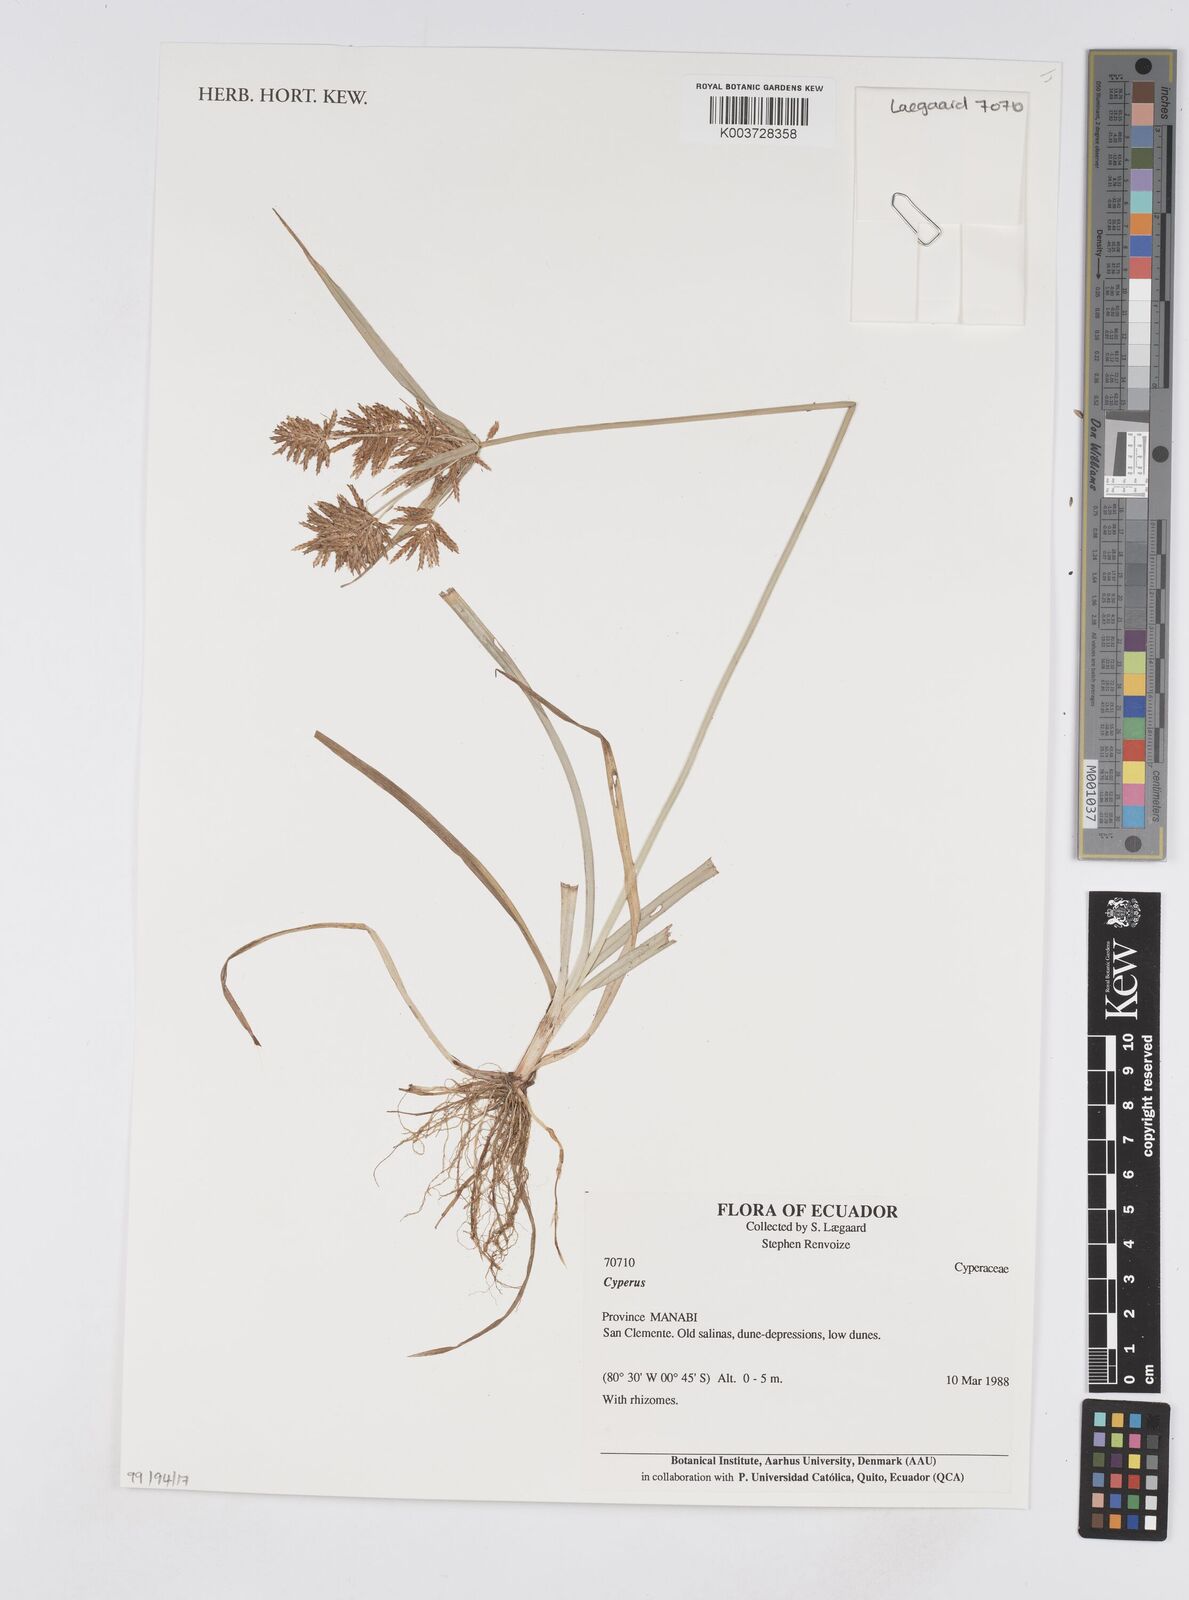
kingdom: Plantae
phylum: Tracheophyta
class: Liliopsida
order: Poales
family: Cyperaceae
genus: Cyperus
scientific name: Cyperus
